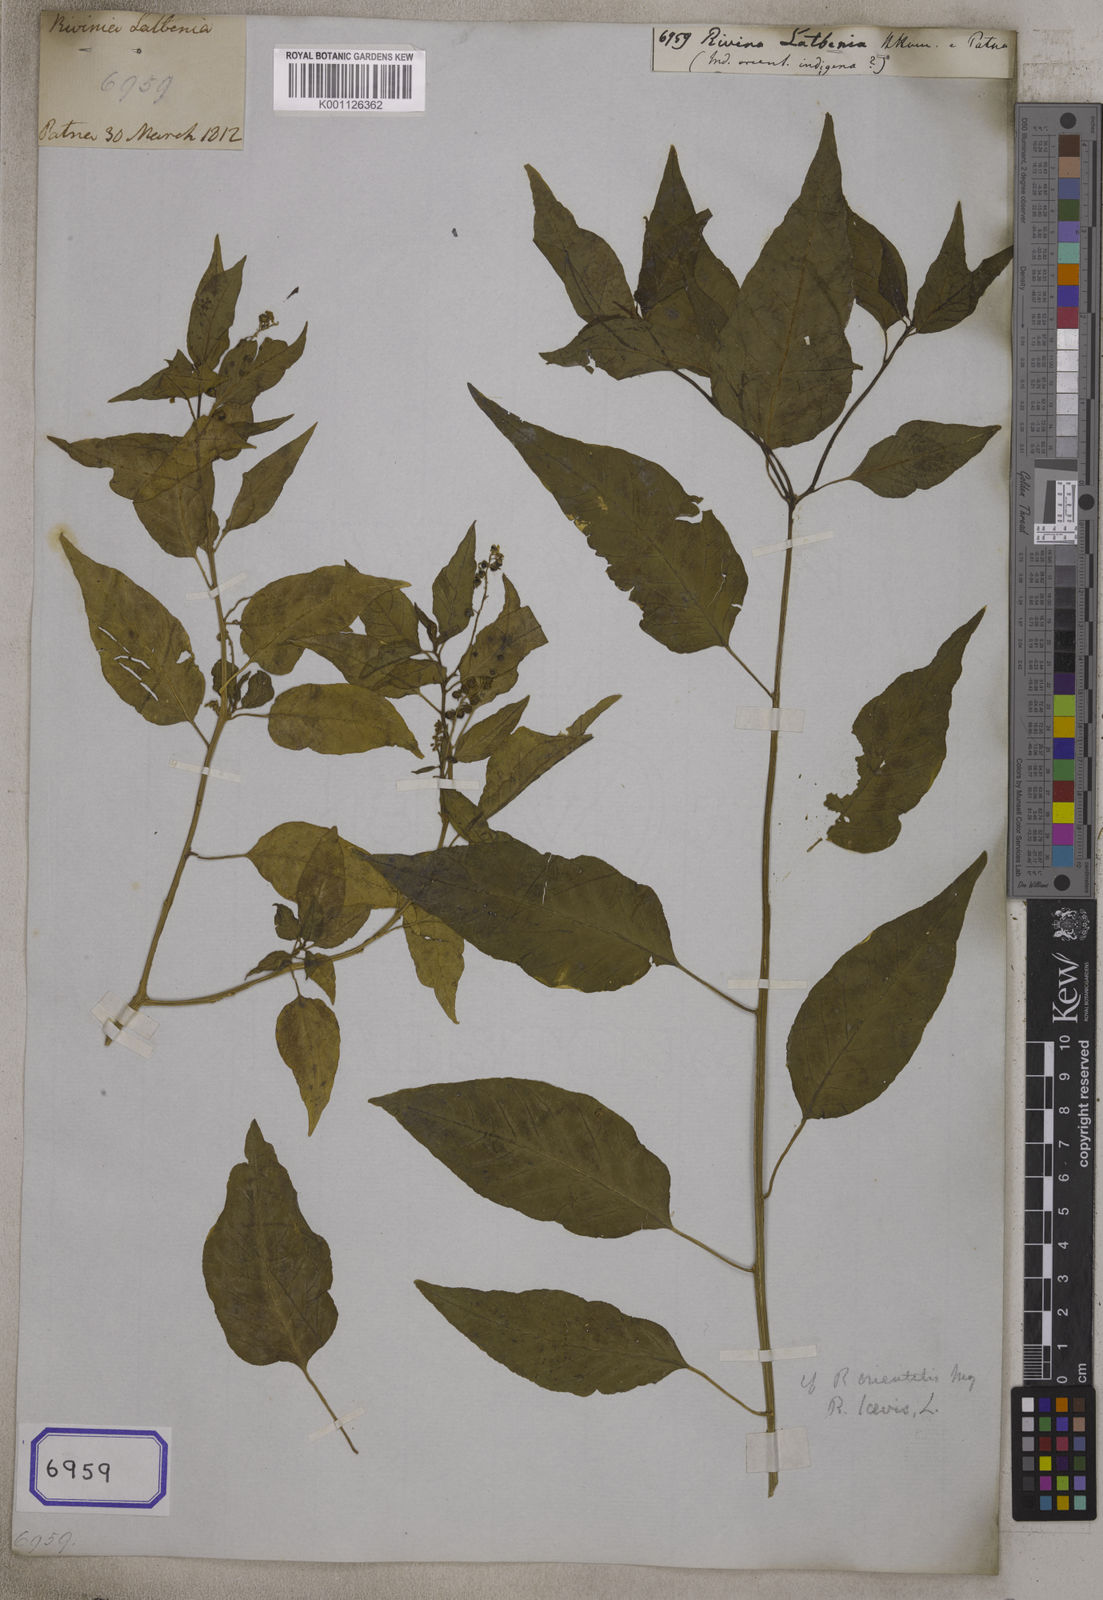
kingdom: Plantae
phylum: Tracheophyta
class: Magnoliopsida
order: Caryophyllales
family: Phytolaccaceae
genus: Phytolacca
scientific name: Phytolacca latbenia
